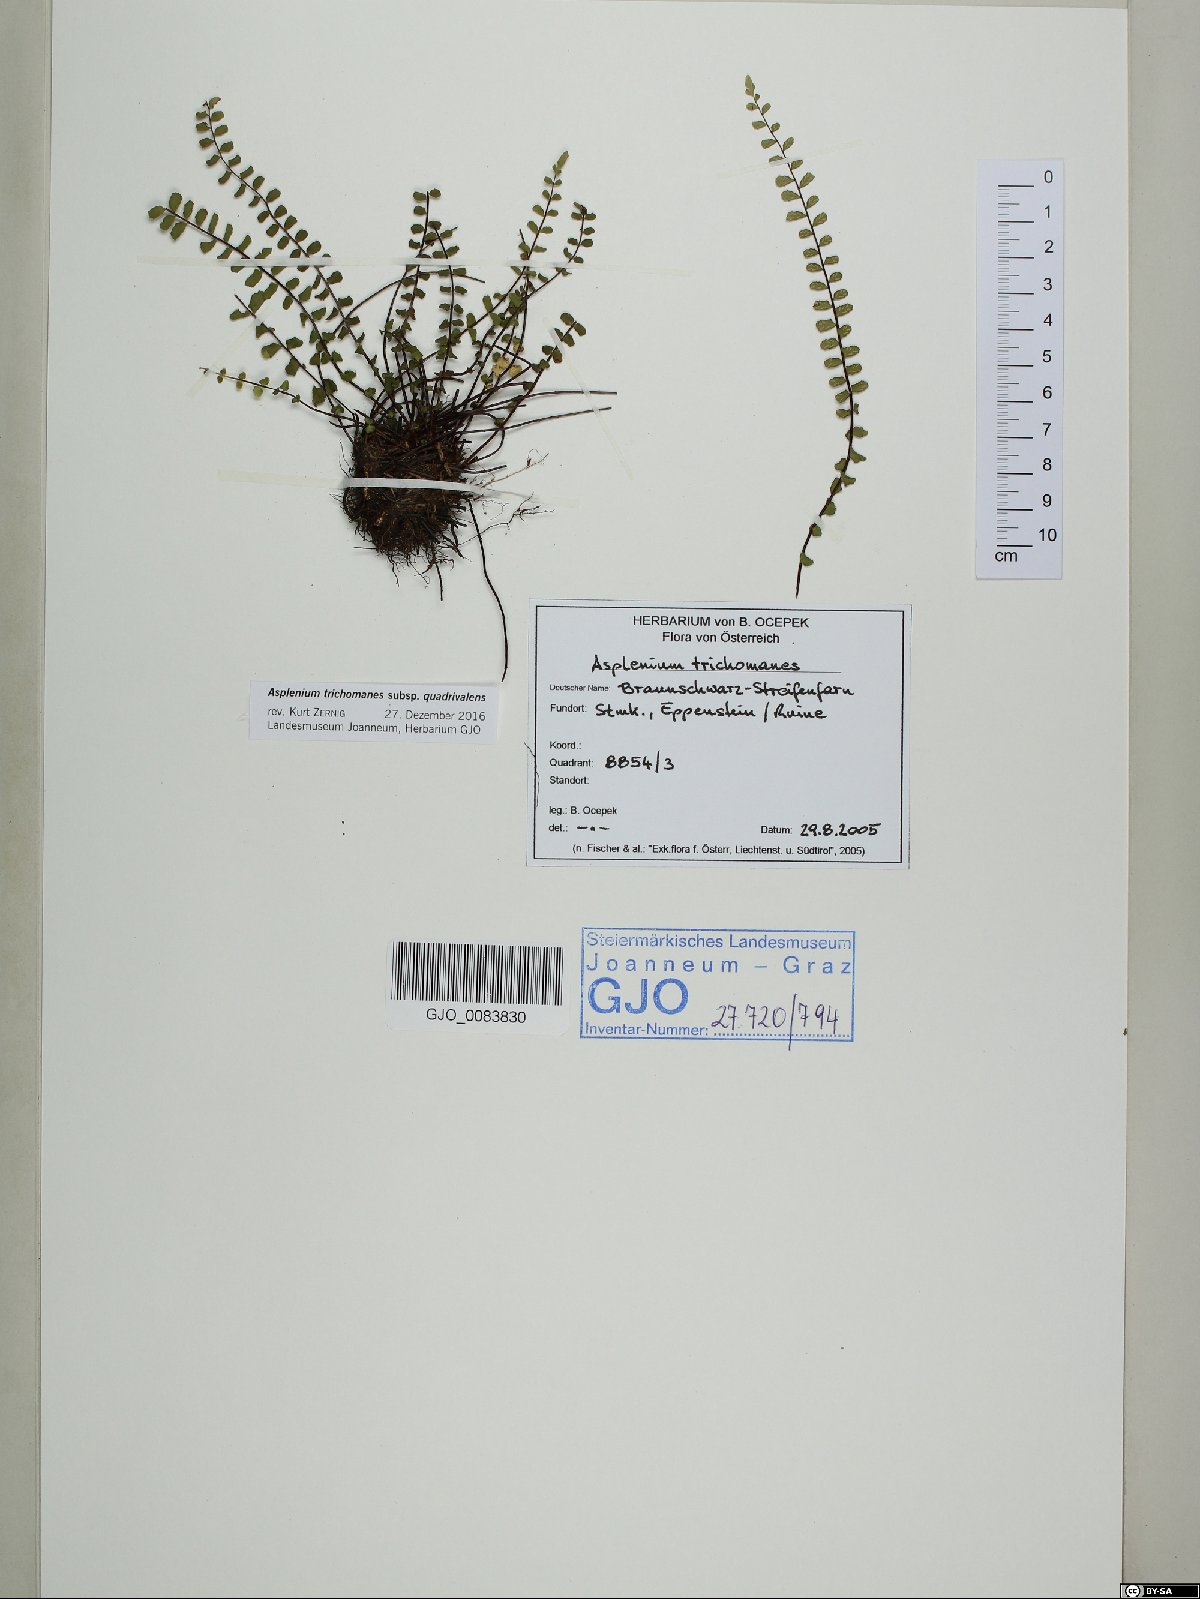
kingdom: Plantae
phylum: Tracheophyta
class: Polypodiopsida
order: Polypodiales
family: Aspleniaceae
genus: Asplenium
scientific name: Asplenium quadrivalens
